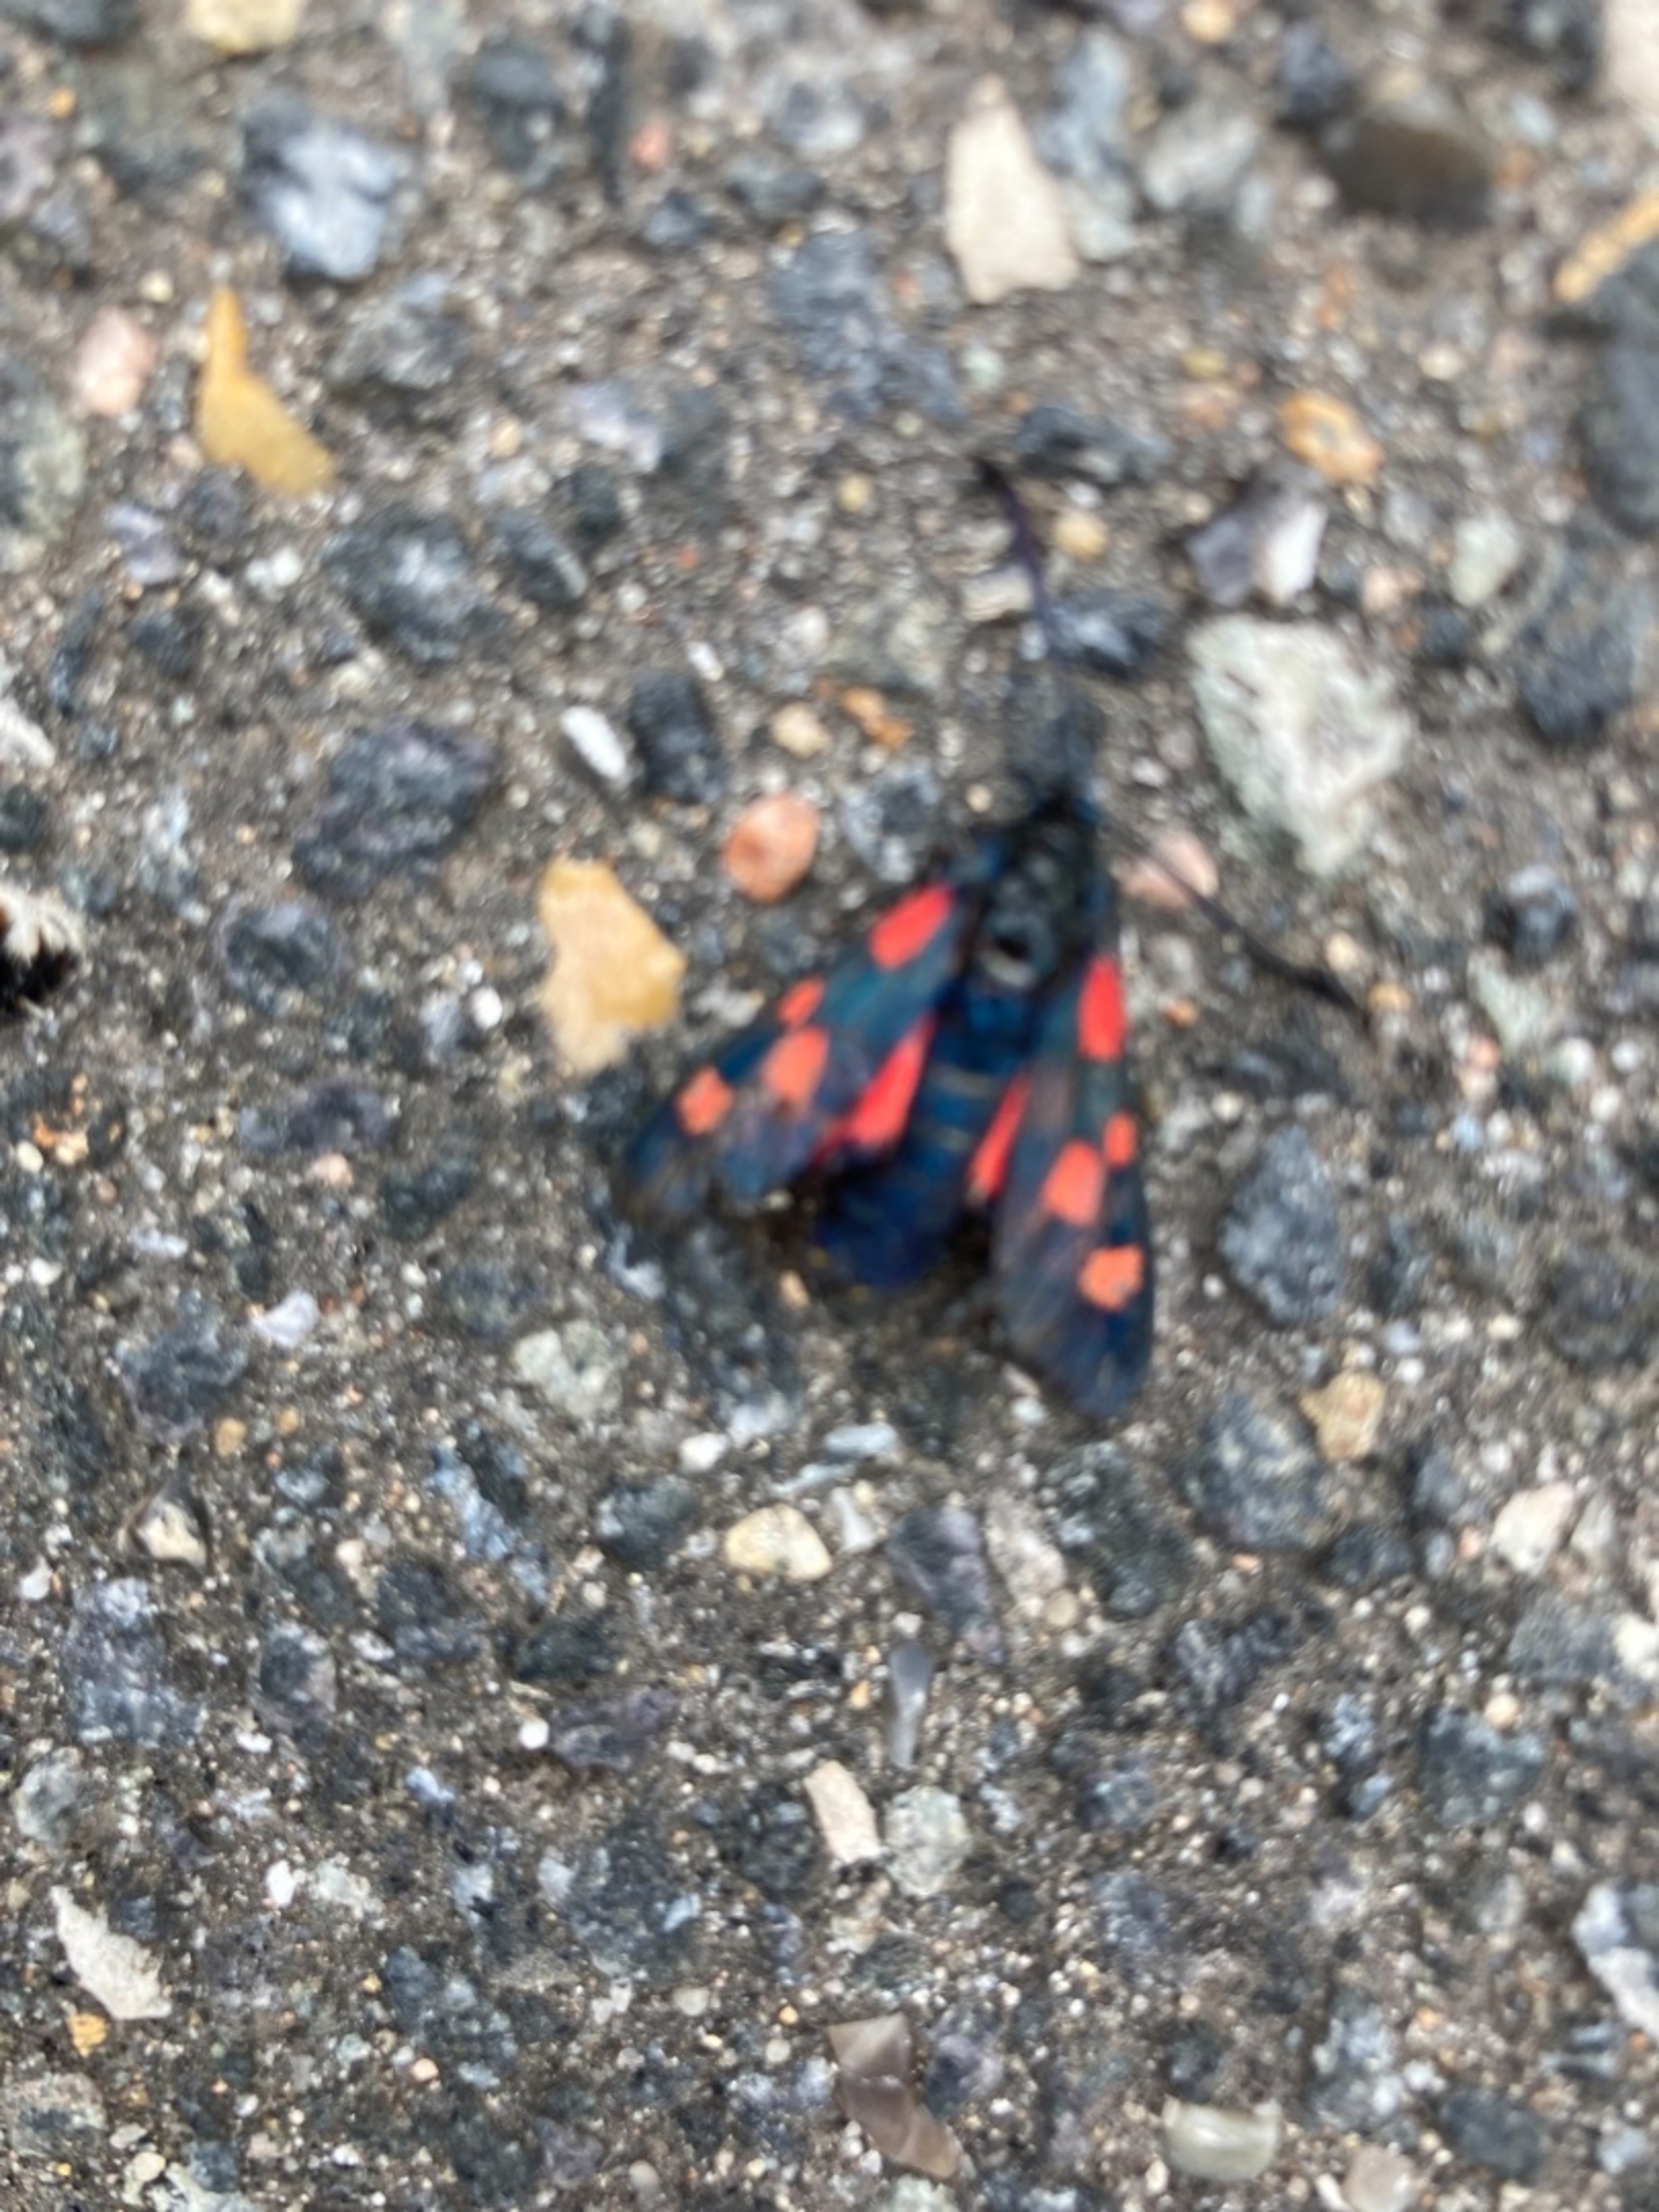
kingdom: Animalia
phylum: Arthropoda
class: Insecta
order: Lepidoptera
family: Zygaenidae
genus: Zygaena
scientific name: Zygaena lonicerae
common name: Femplettet køllesværmer
